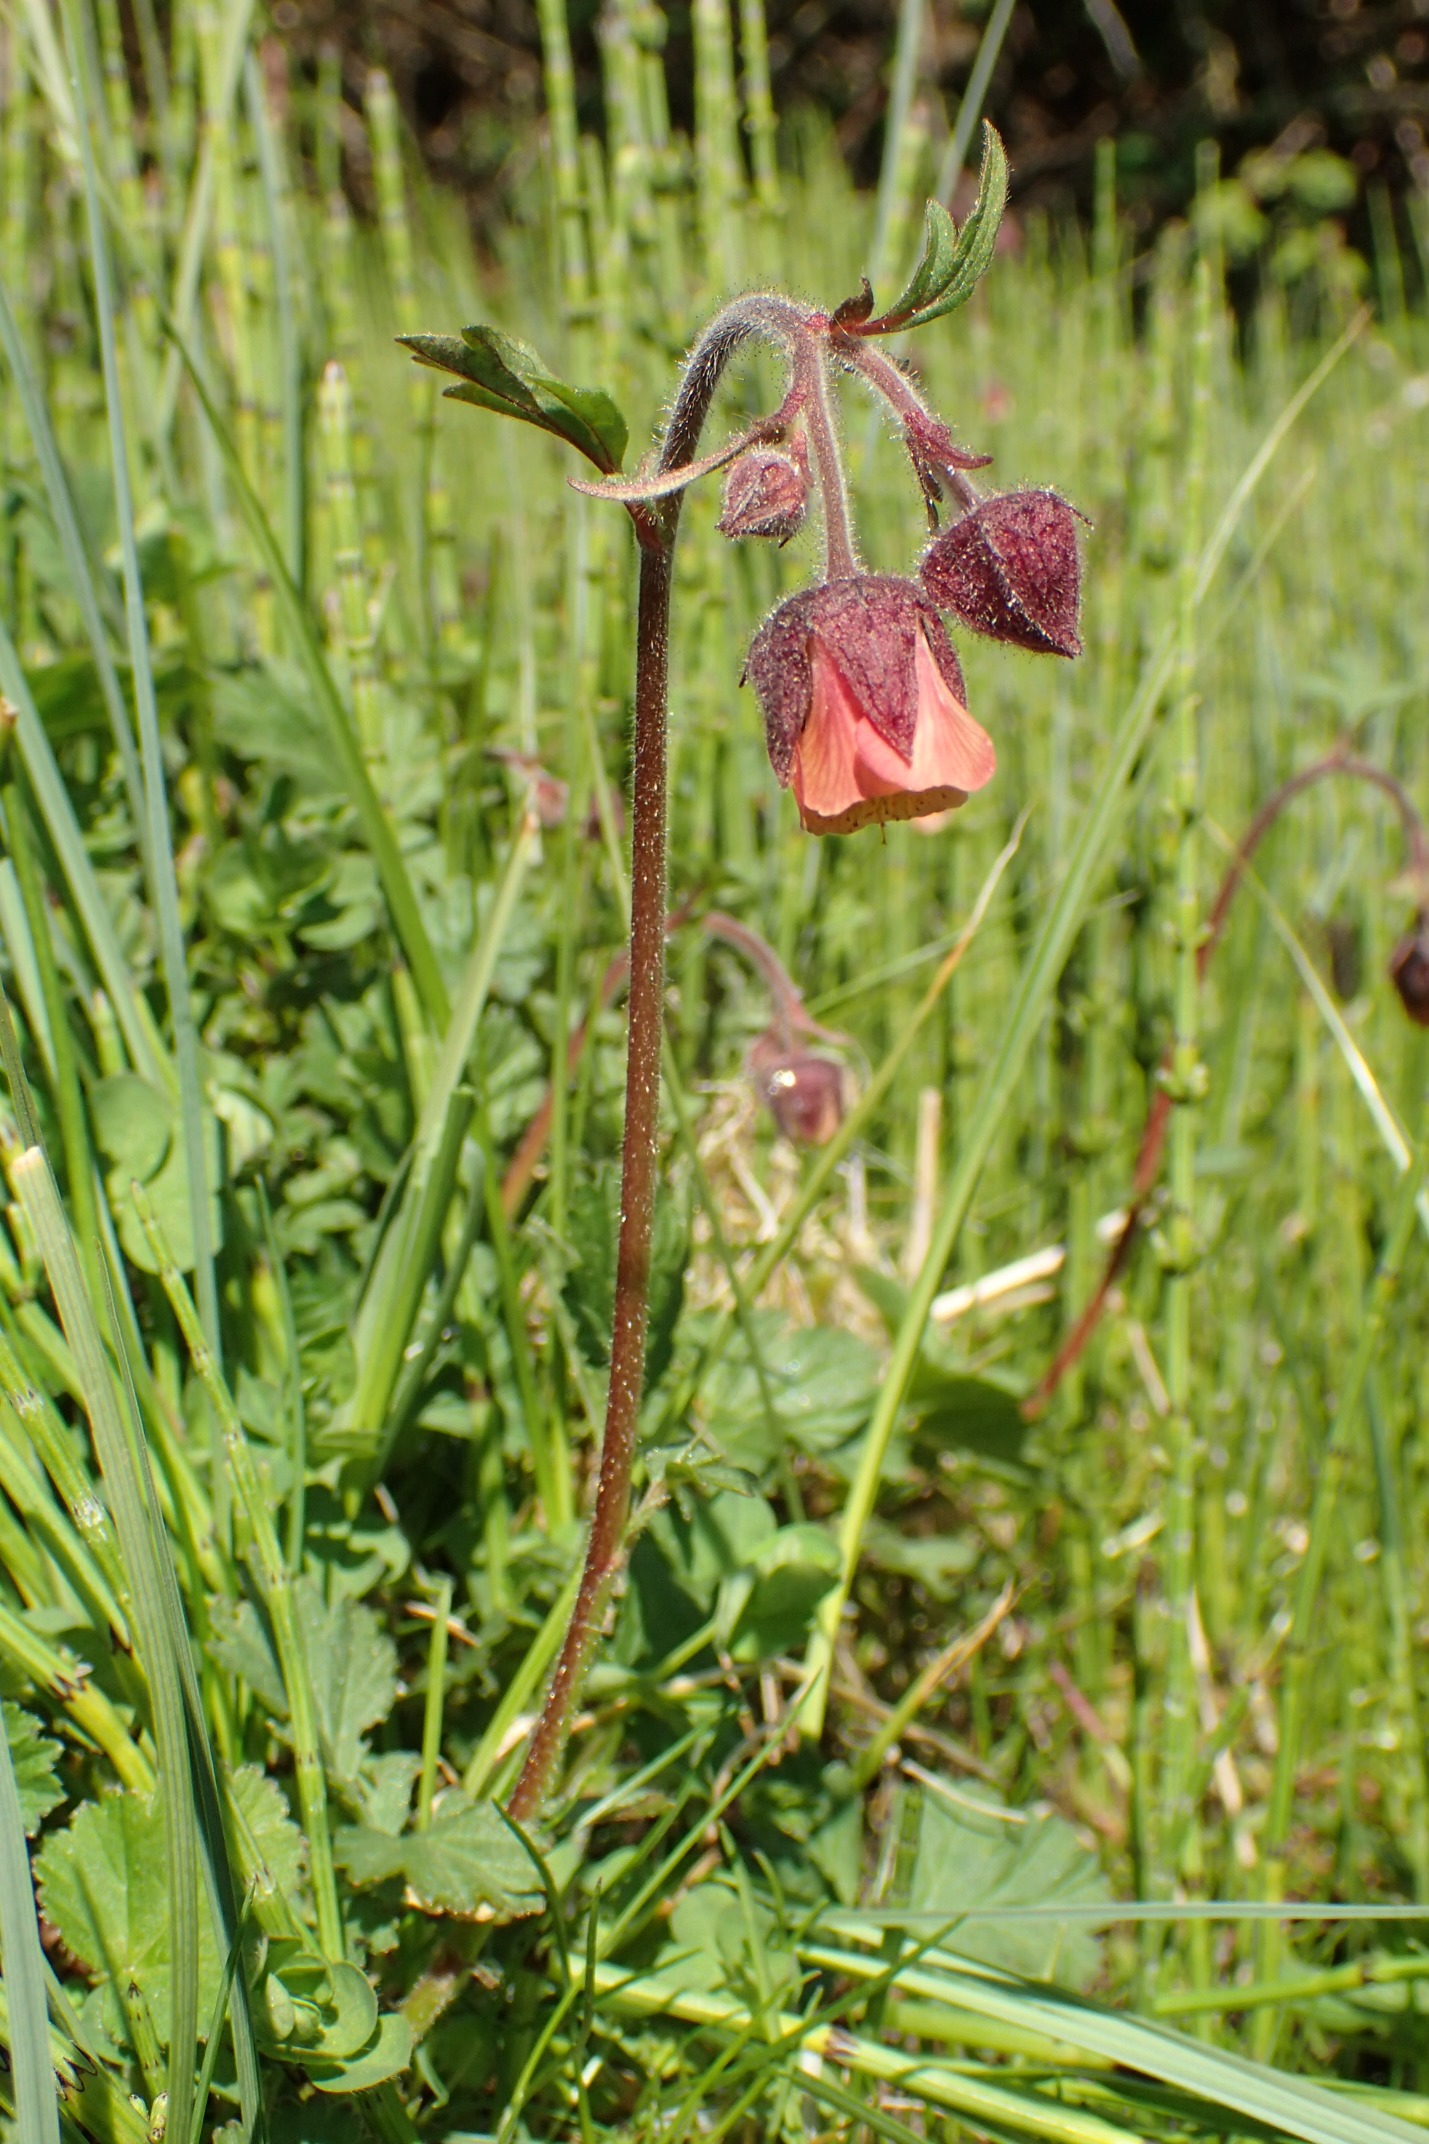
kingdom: Plantae
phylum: Tracheophyta
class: Magnoliopsida
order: Rosales
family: Rosaceae
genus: Geum
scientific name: Geum rivale
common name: Eng-nellikerod
